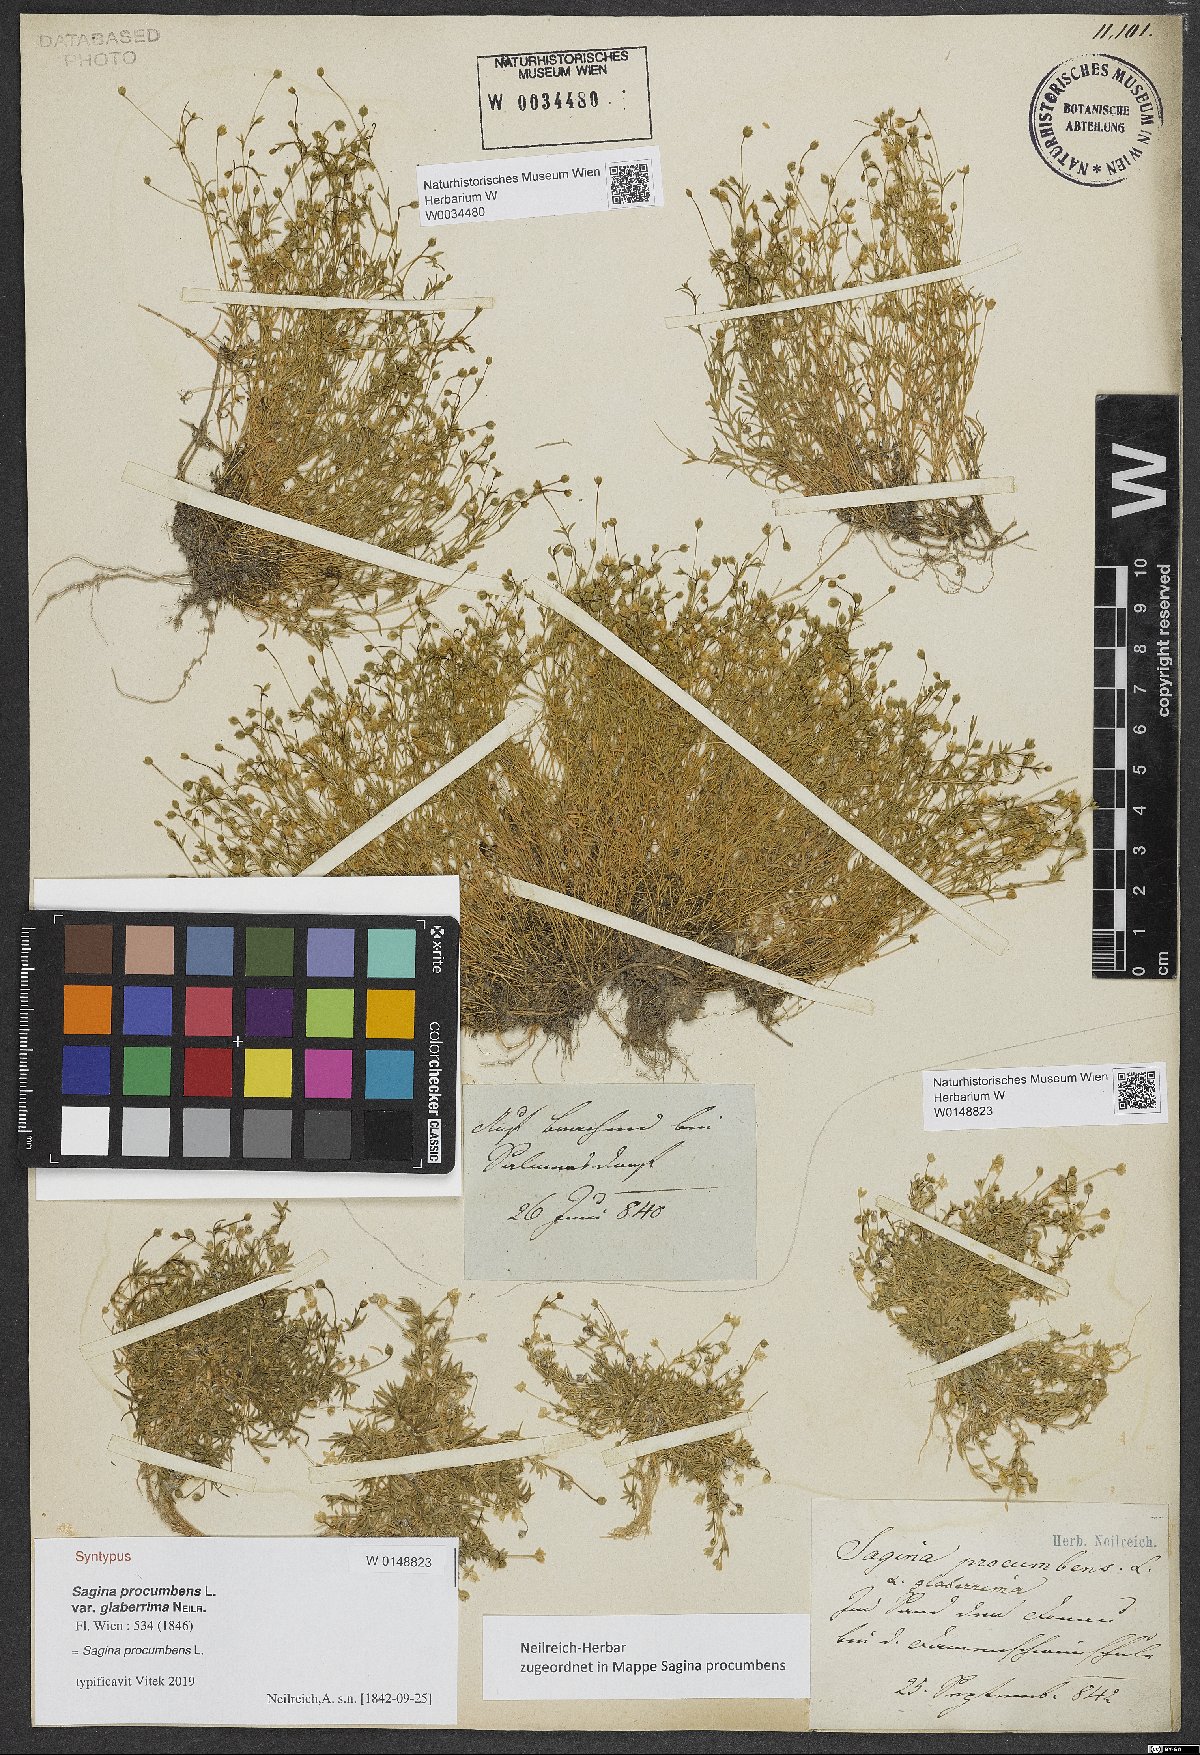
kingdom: Plantae
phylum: Tracheophyta
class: Magnoliopsida
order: Caryophyllales
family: Caryophyllaceae
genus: Sagina
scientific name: Sagina procumbens
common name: Procumbent pearlwort
